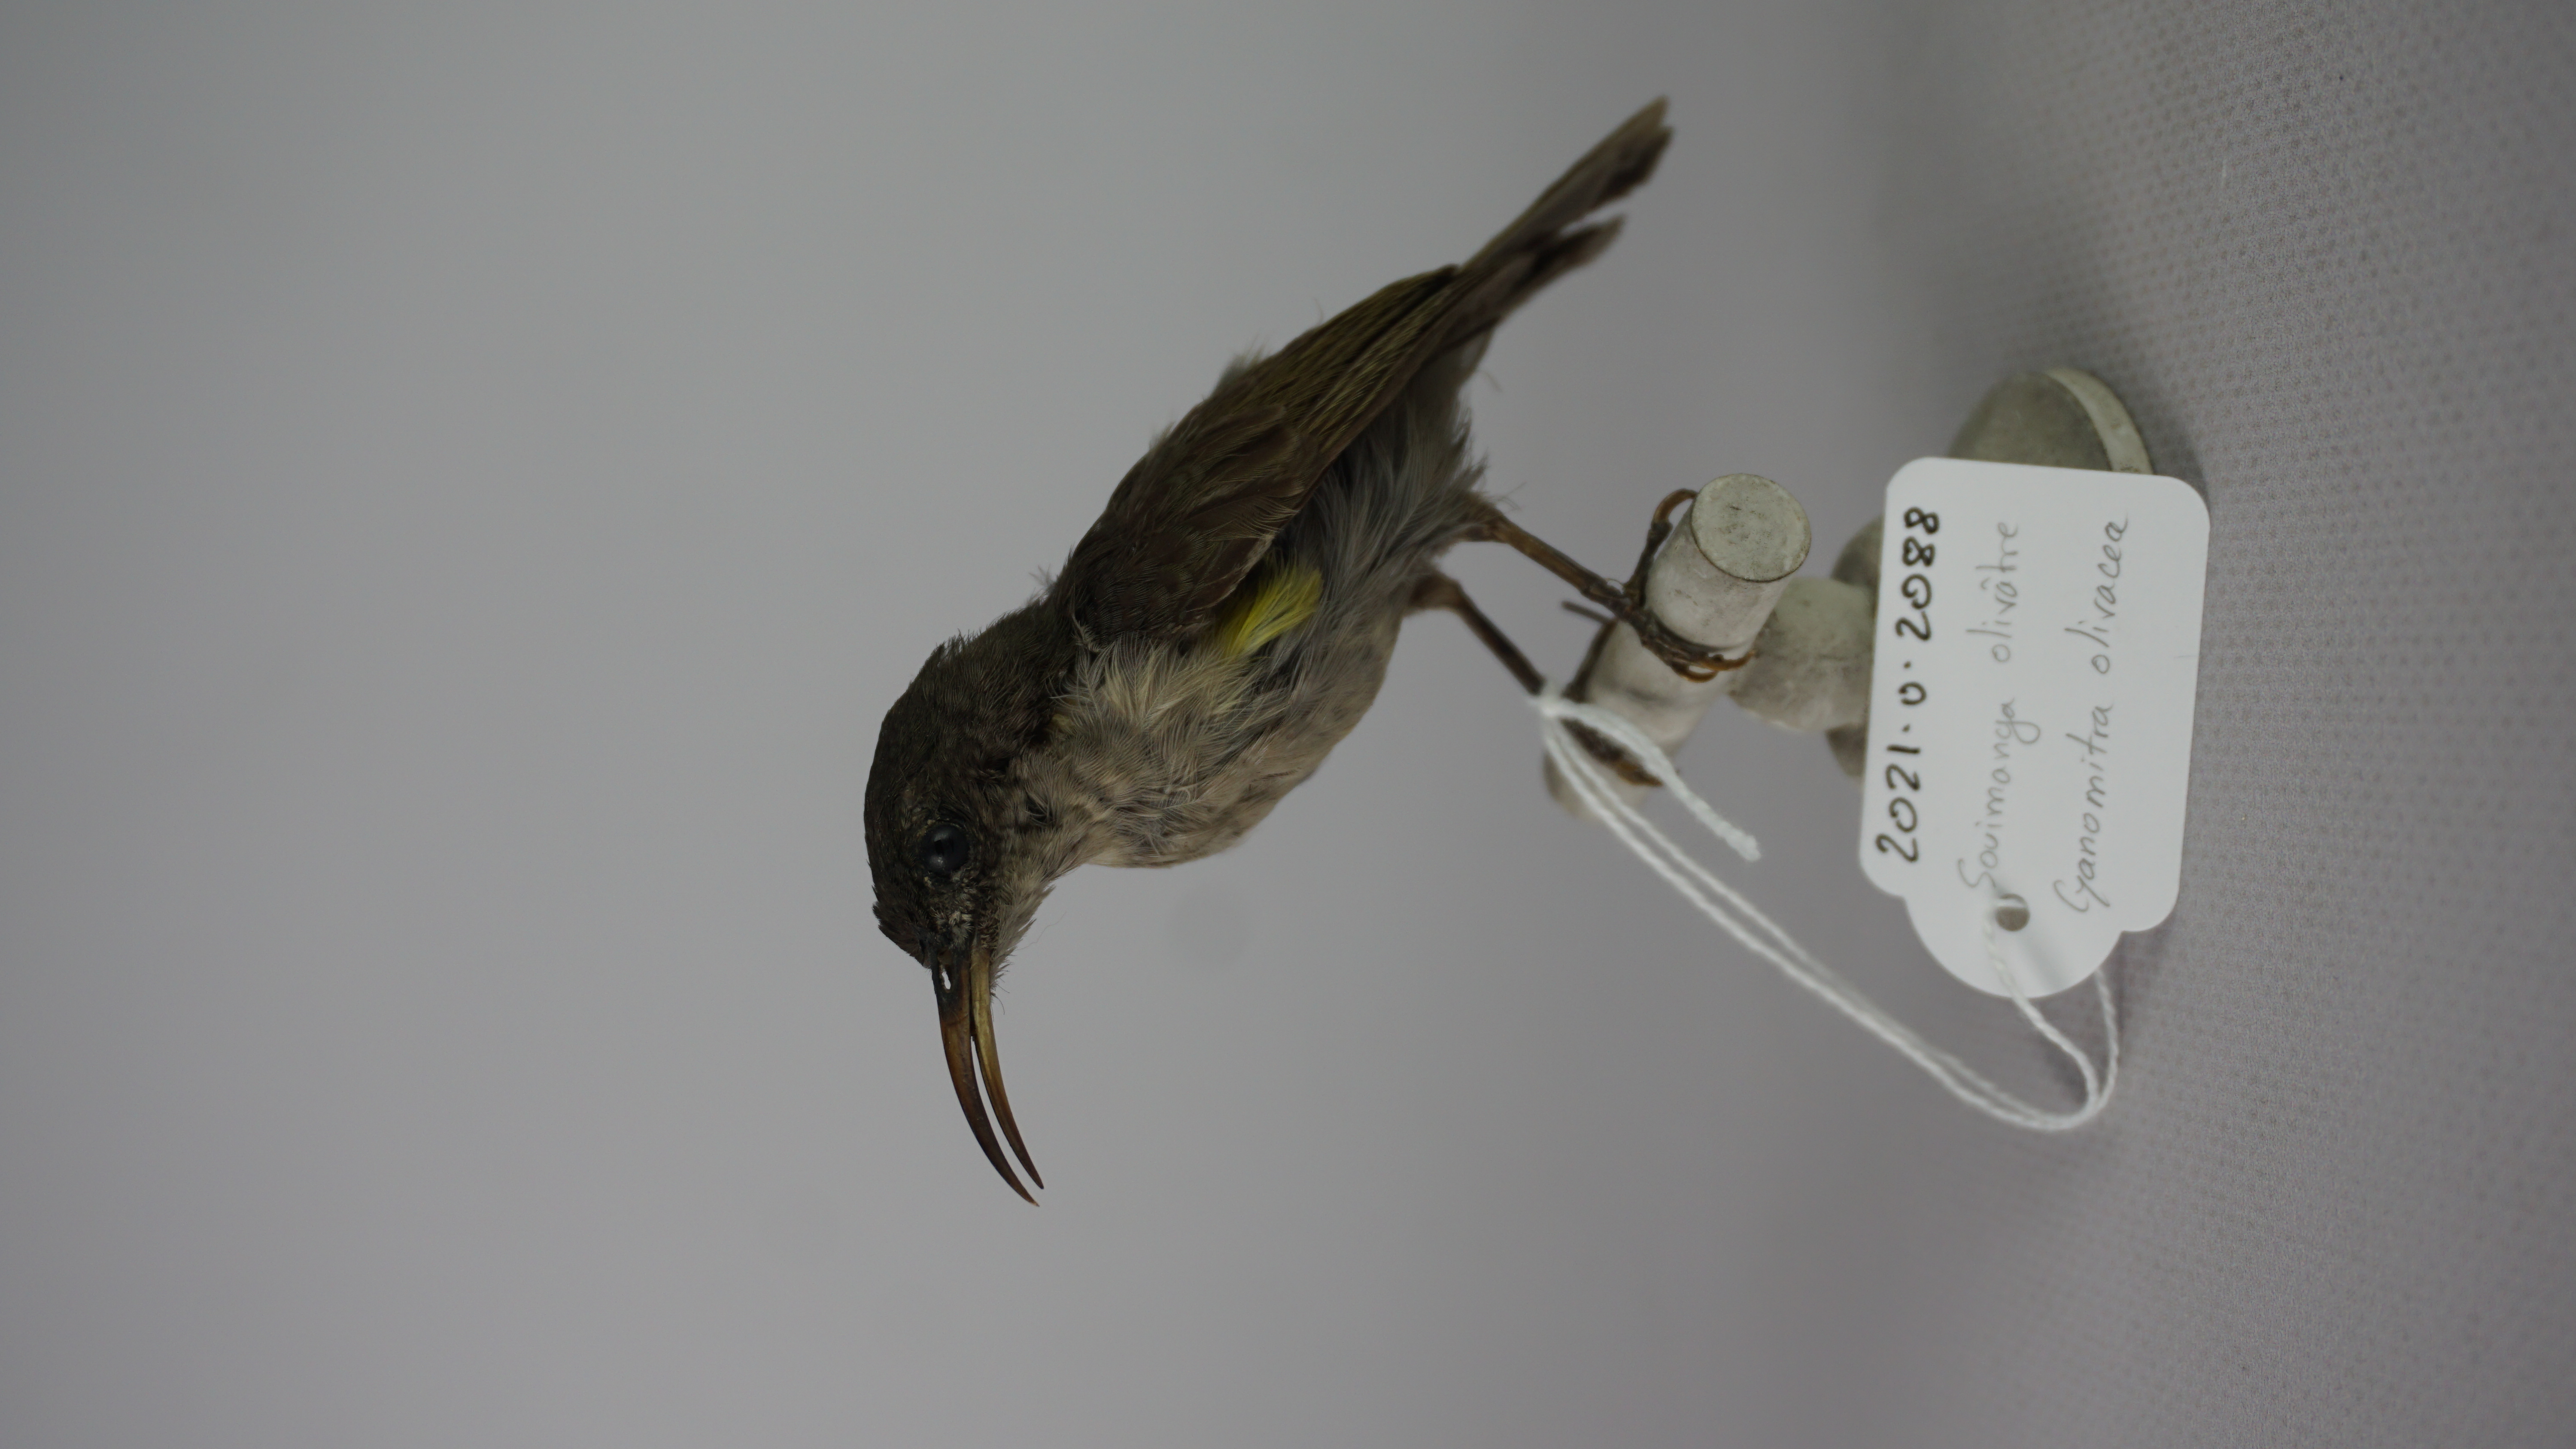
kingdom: Animalia
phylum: Chordata
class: Aves
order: Passeriformes
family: Nectariniidae
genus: Cyanomitra
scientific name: Cyanomitra olivacea
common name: Olive sunbird
